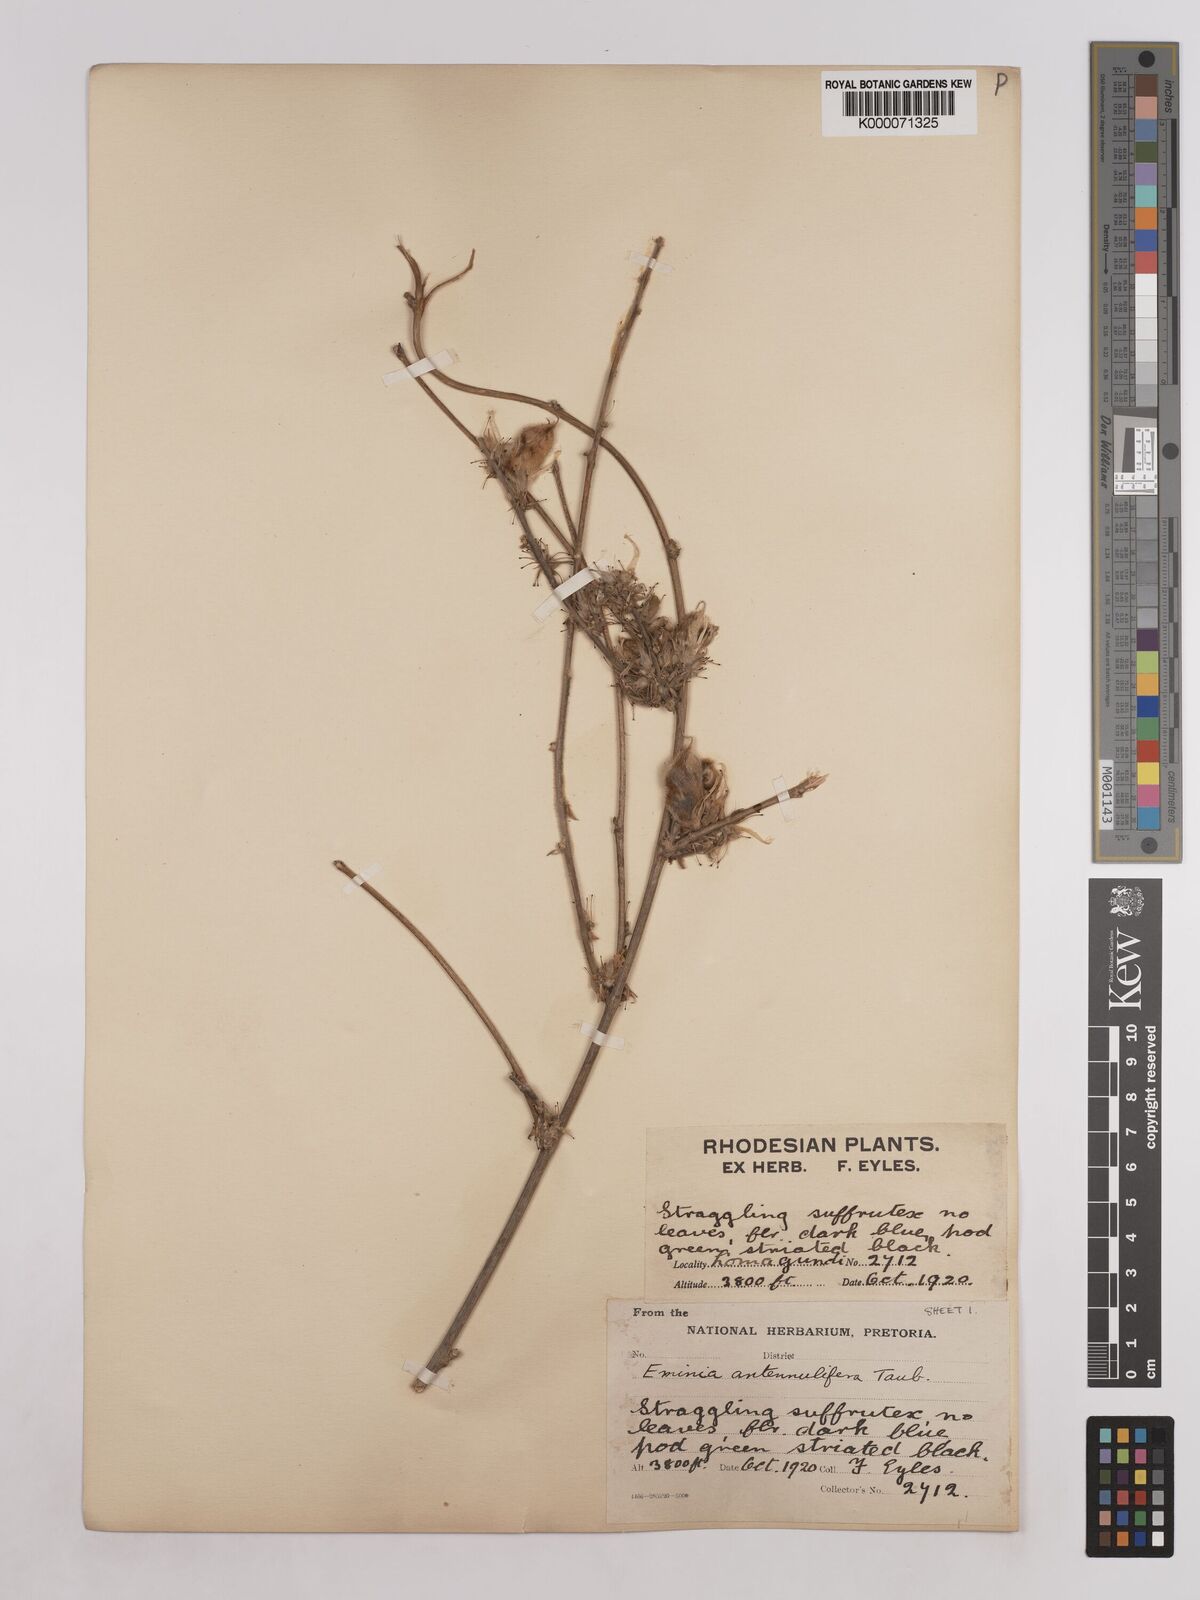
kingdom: Plantae
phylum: Tracheophyta
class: Magnoliopsida
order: Fabales
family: Fabaceae
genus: Eminia
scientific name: Eminia antennulifera
